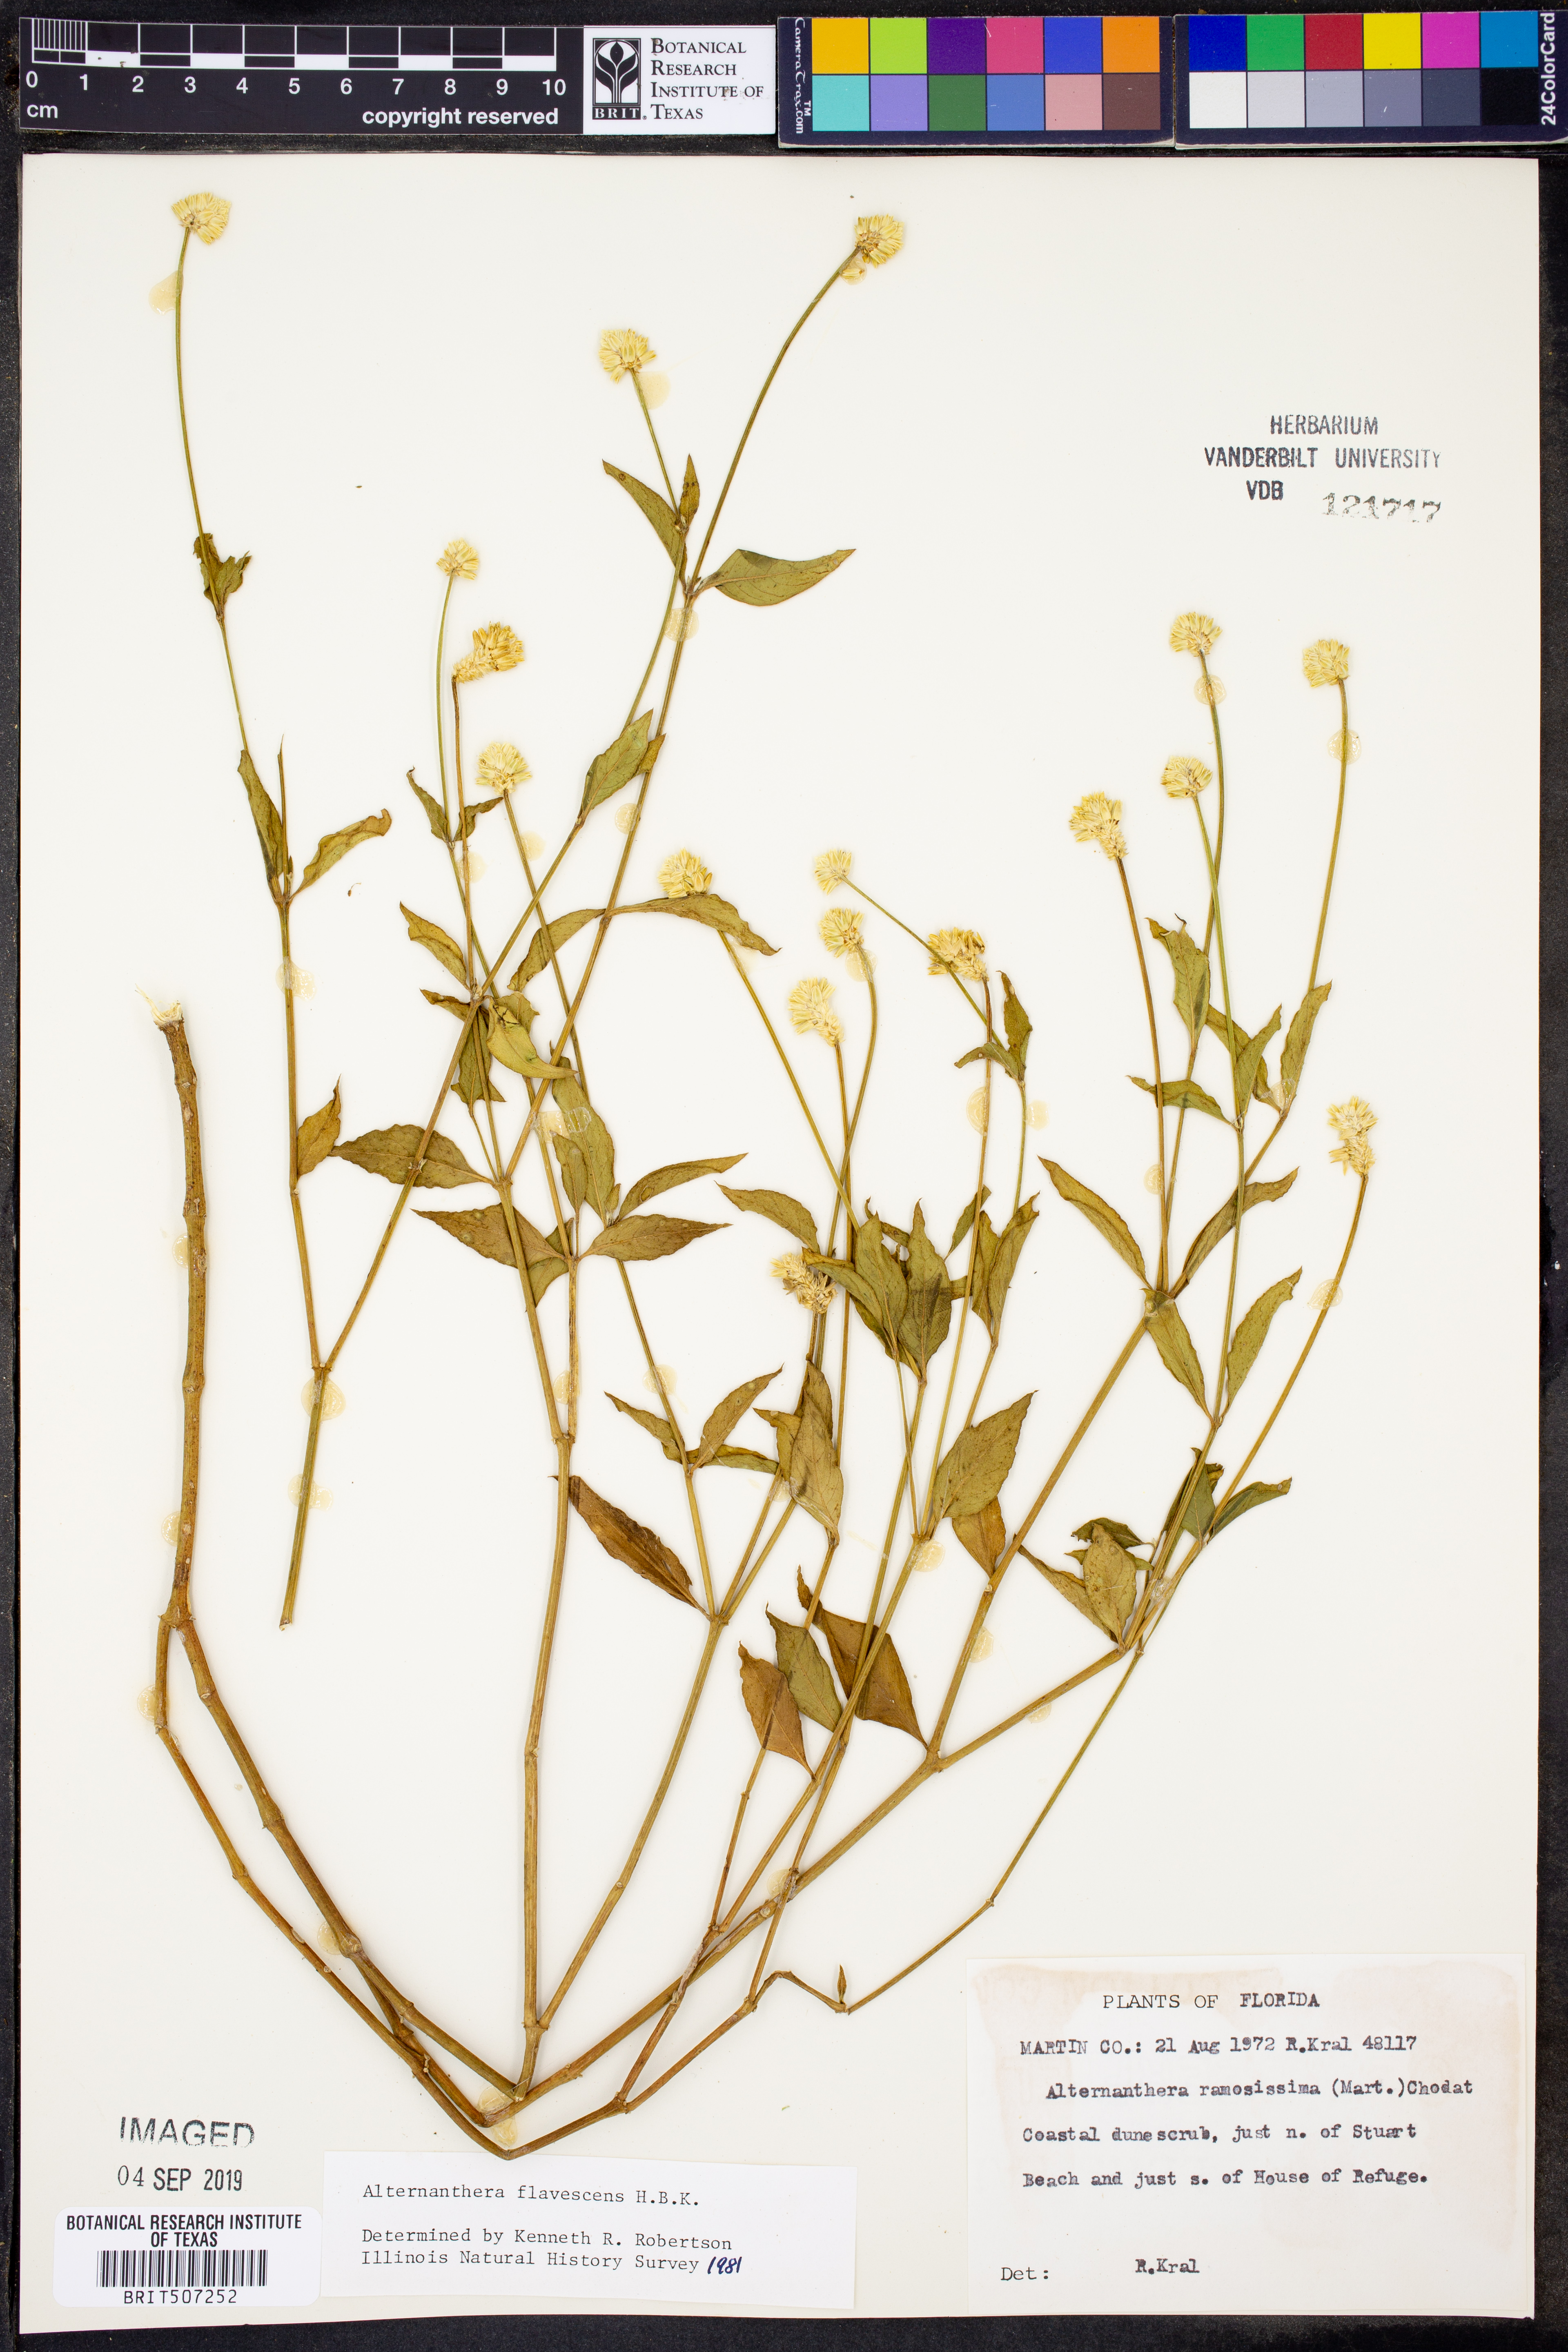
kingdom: Plantae
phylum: Tracheophyta
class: Magnoliopsida
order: Caryophyllales
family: Amaranthaceae
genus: Alternanthera
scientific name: Alternanthera flavescens
